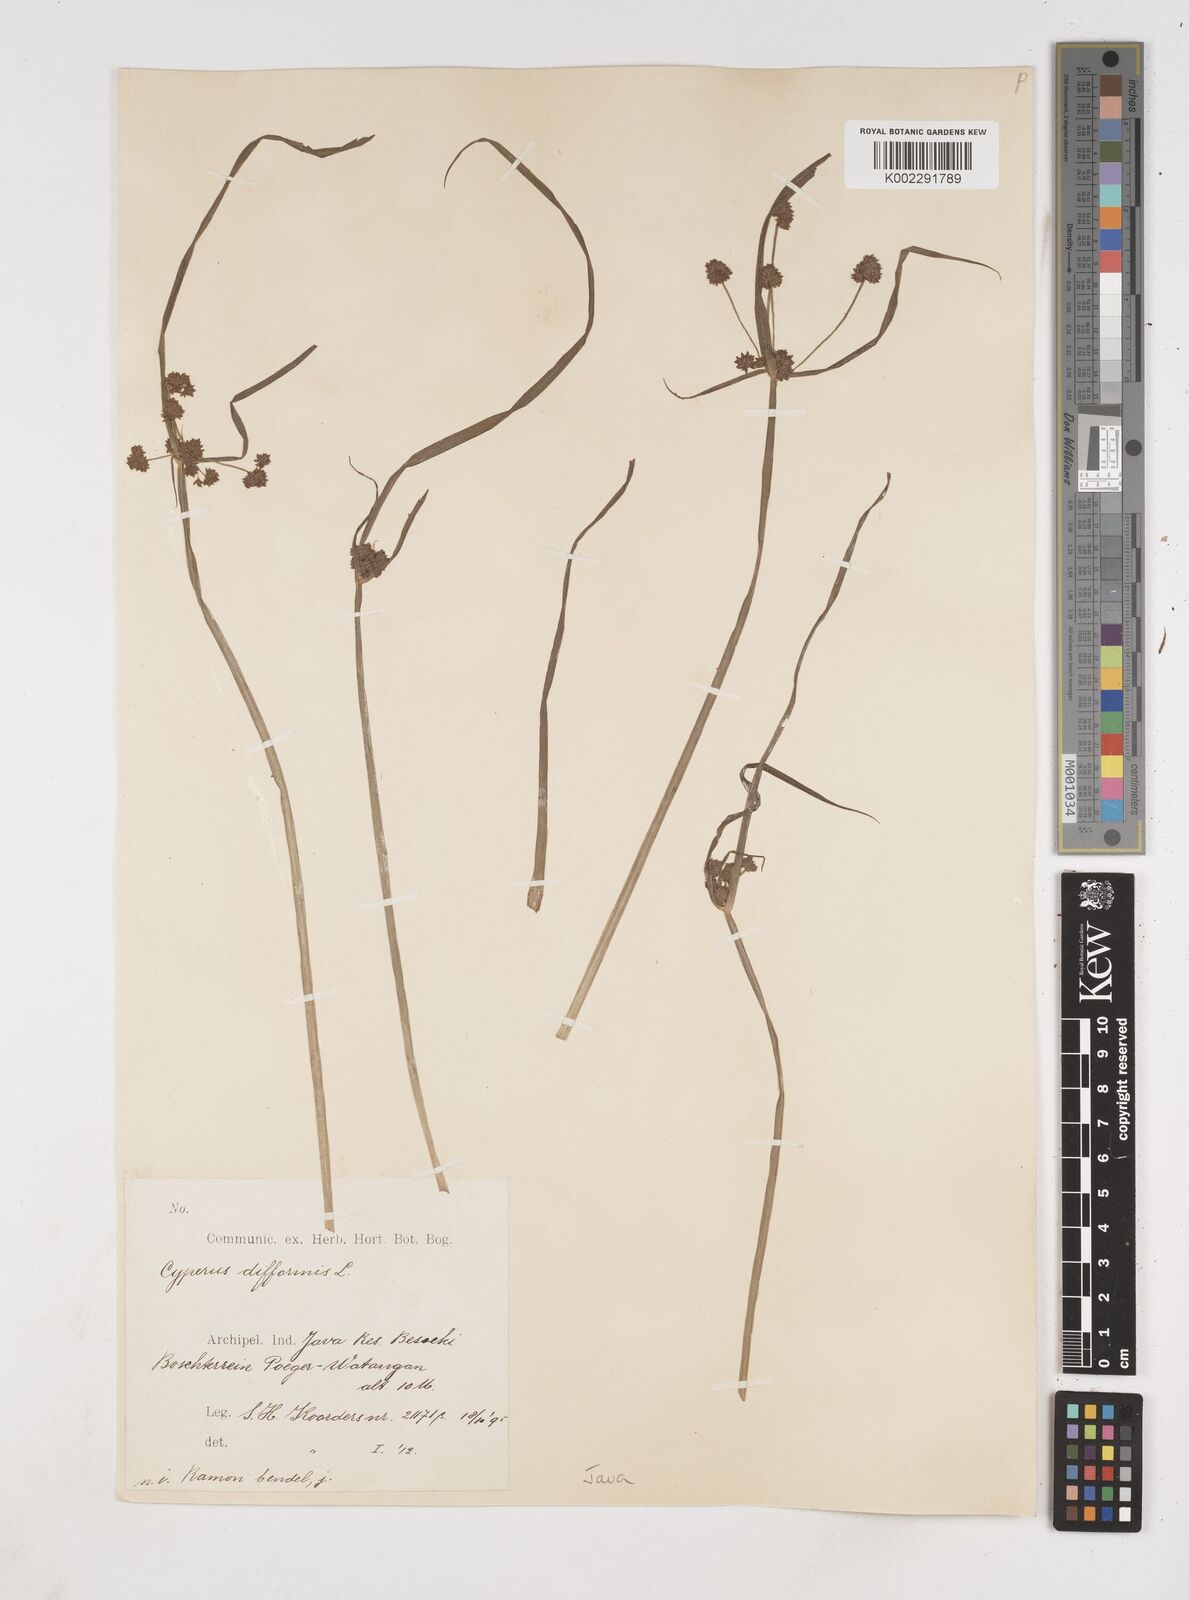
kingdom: Plantae
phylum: Tracheophyta
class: Liliopsida
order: Poales
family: Cyperaceae
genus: Cyperus
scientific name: Cyperus difformis
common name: Variable flatsedge
